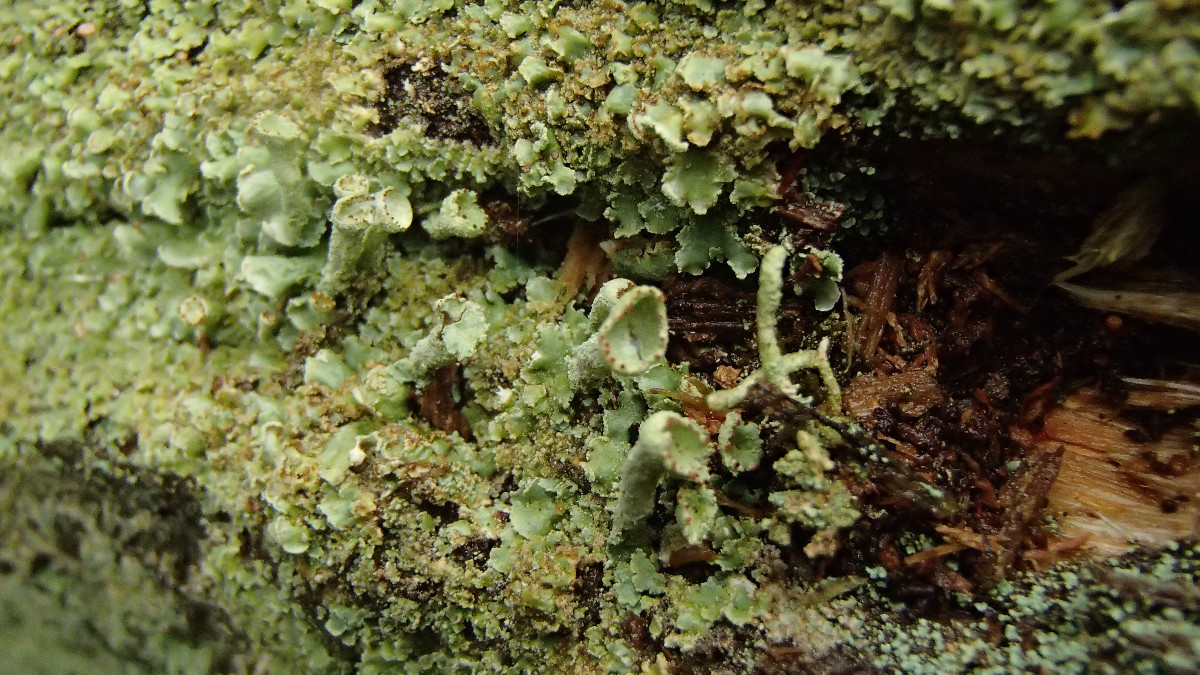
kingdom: Fungi
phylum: Ascomycota
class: Lecanoromycetes
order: Lecanorales
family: Cladoniaceae
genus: Cladonia
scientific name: Cladonia digitata
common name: finger-bægerlav
